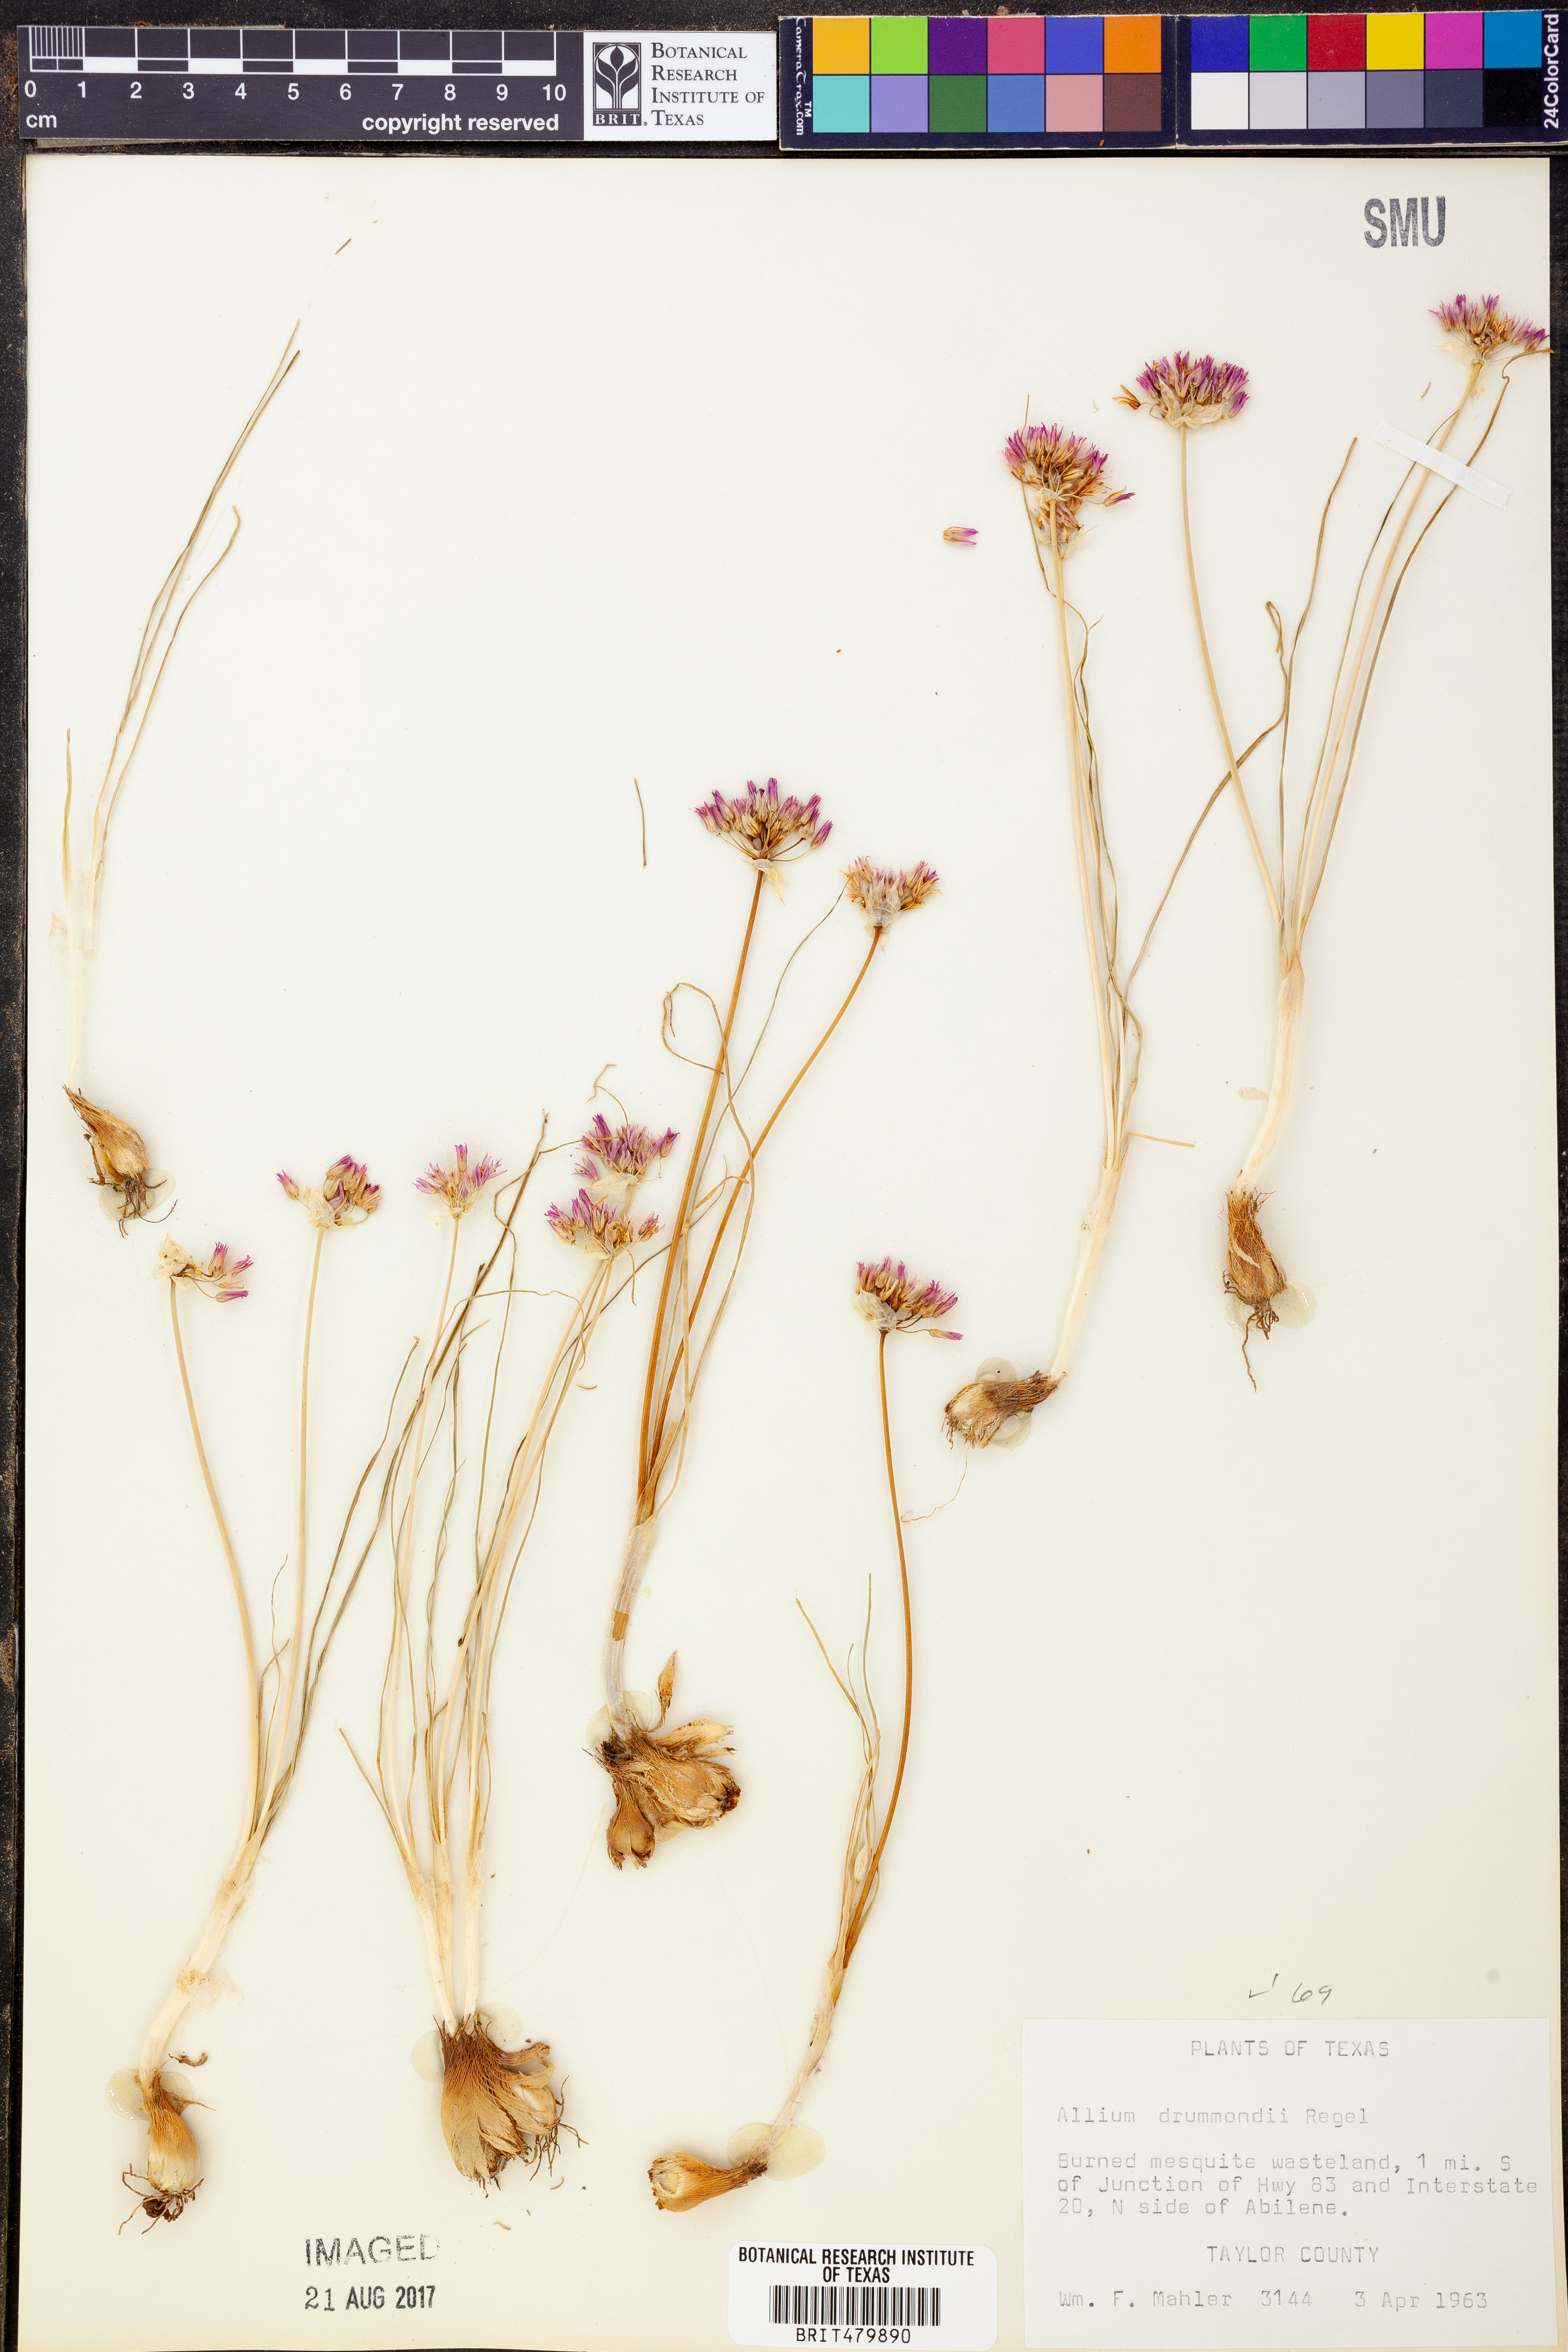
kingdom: Plantae
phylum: Tracheophyta
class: Liliopsida
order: Asparagales
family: Amaryllidaceae
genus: Allium
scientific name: Allium drummondii
